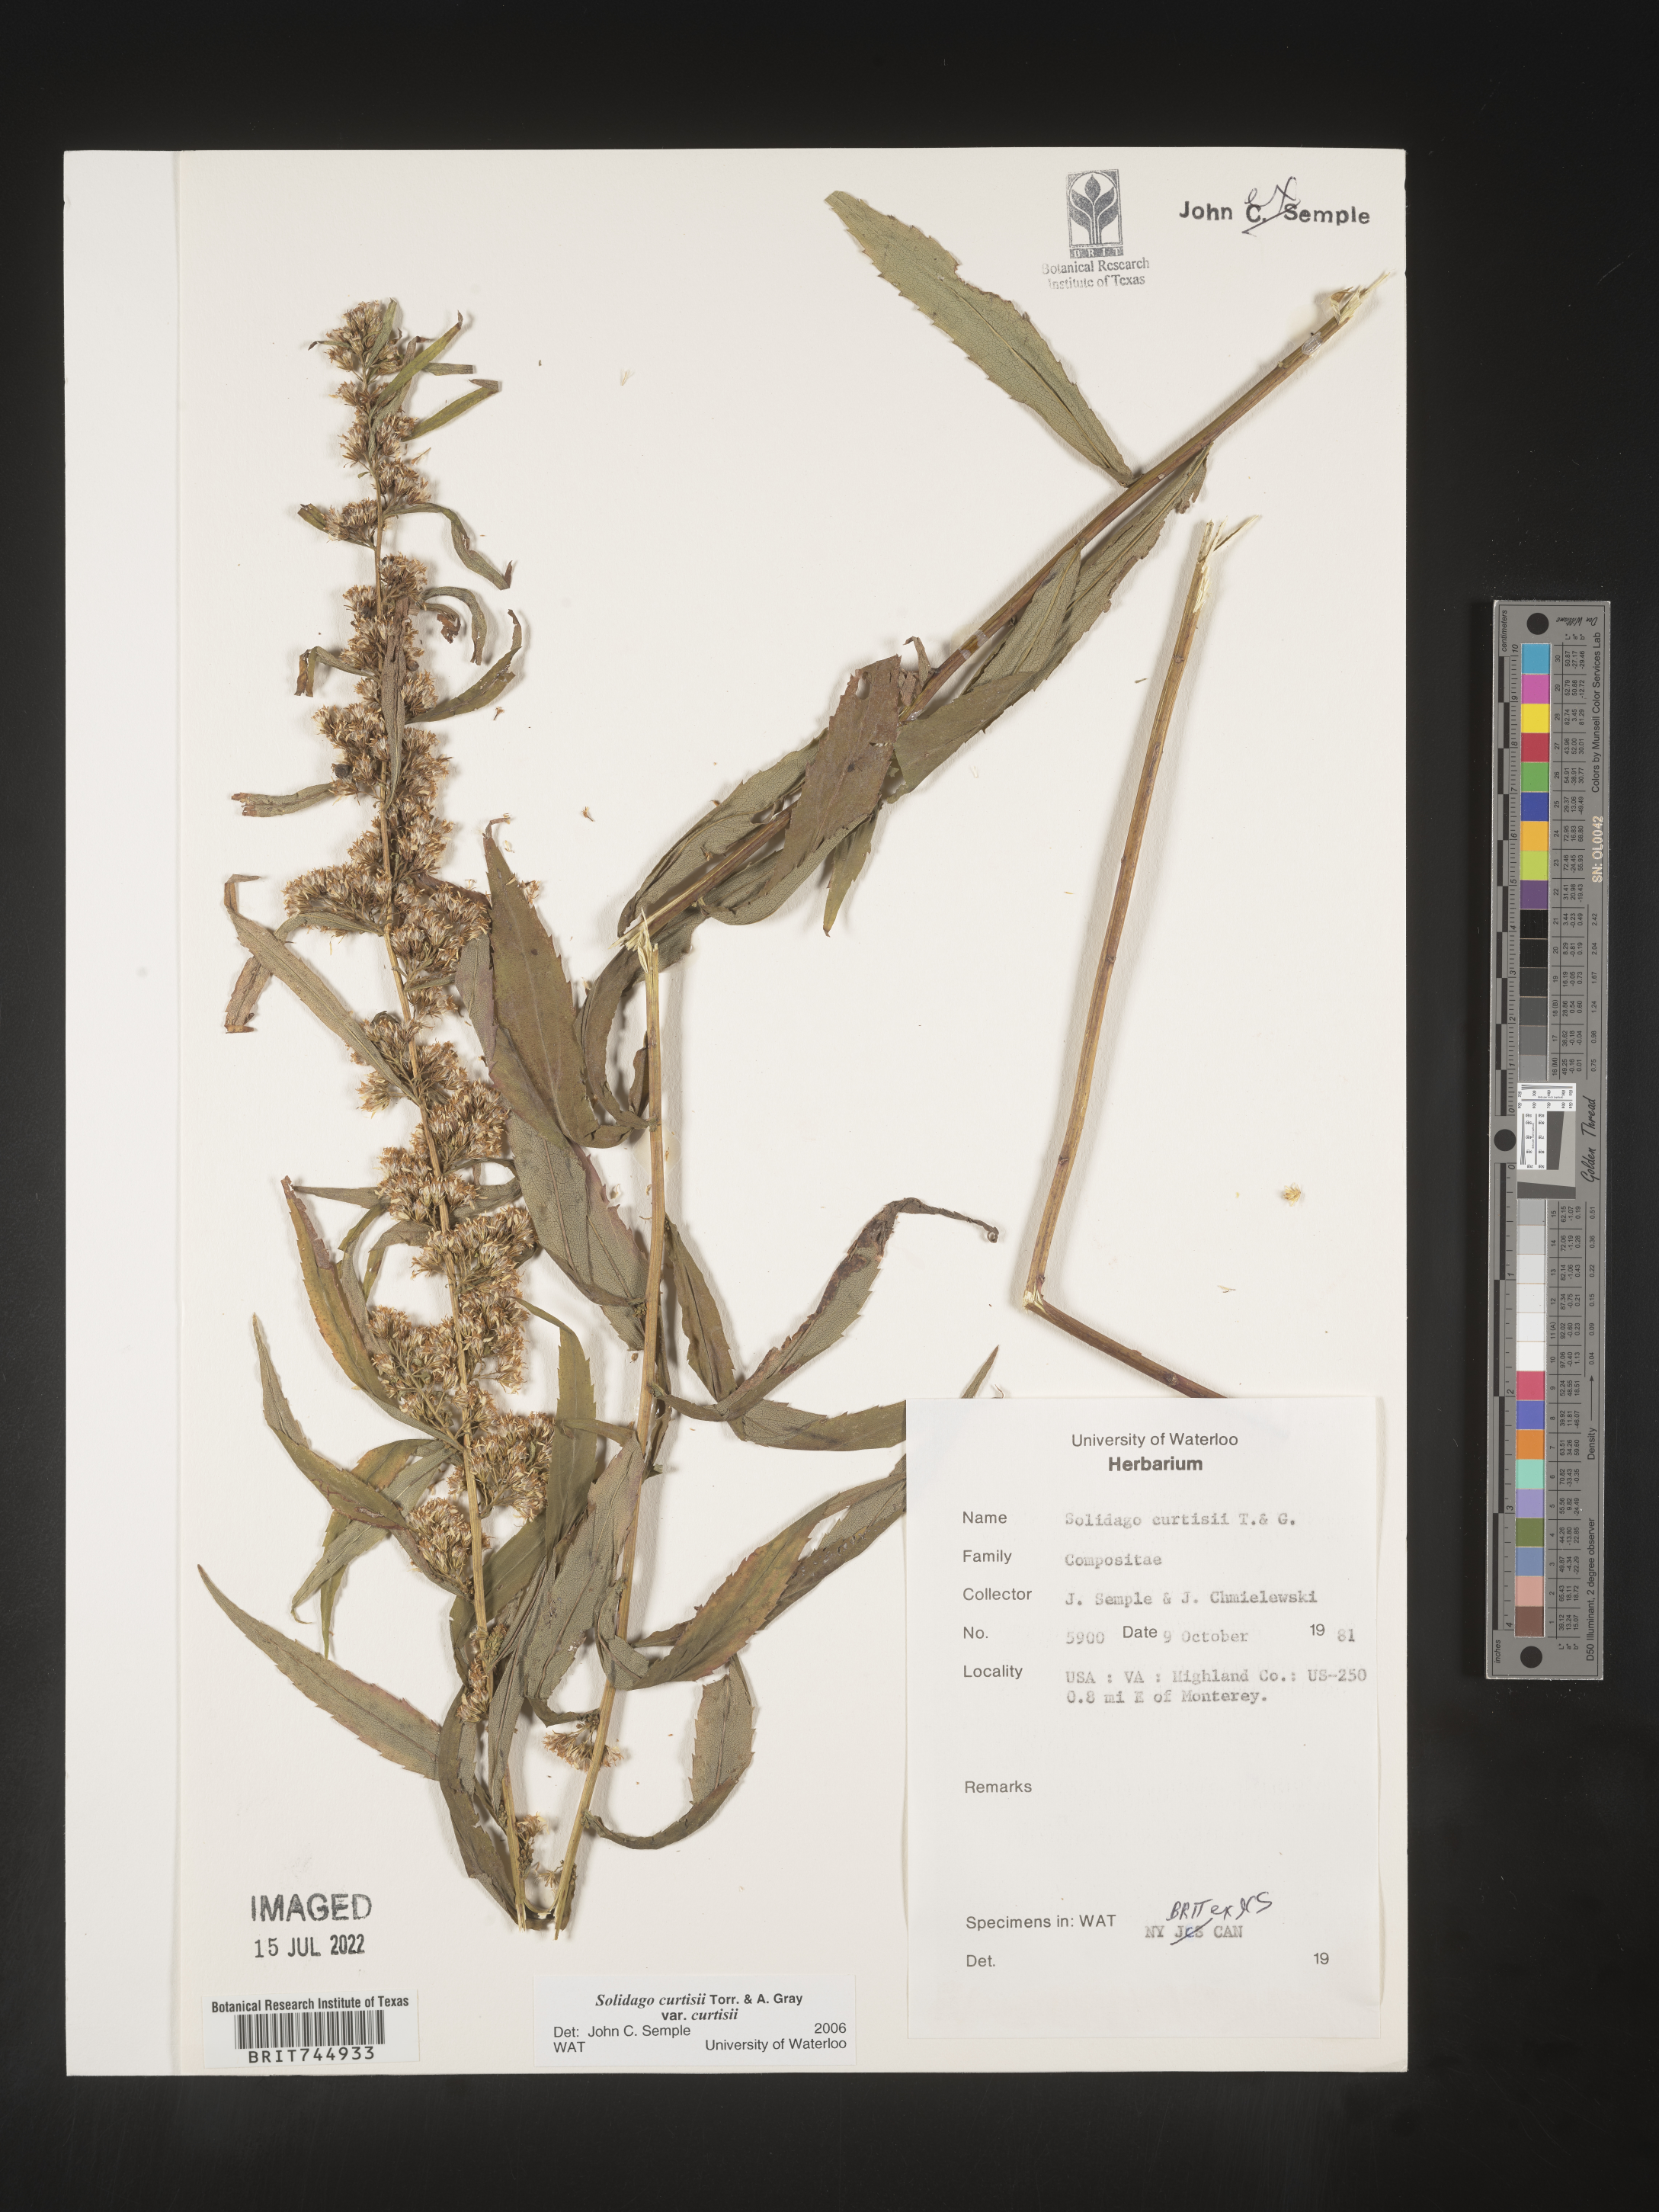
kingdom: Plantae
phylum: Tracheophyta
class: Magnoliopsida
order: Asterales
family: Asteraceae
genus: Solidago
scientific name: Solidago
